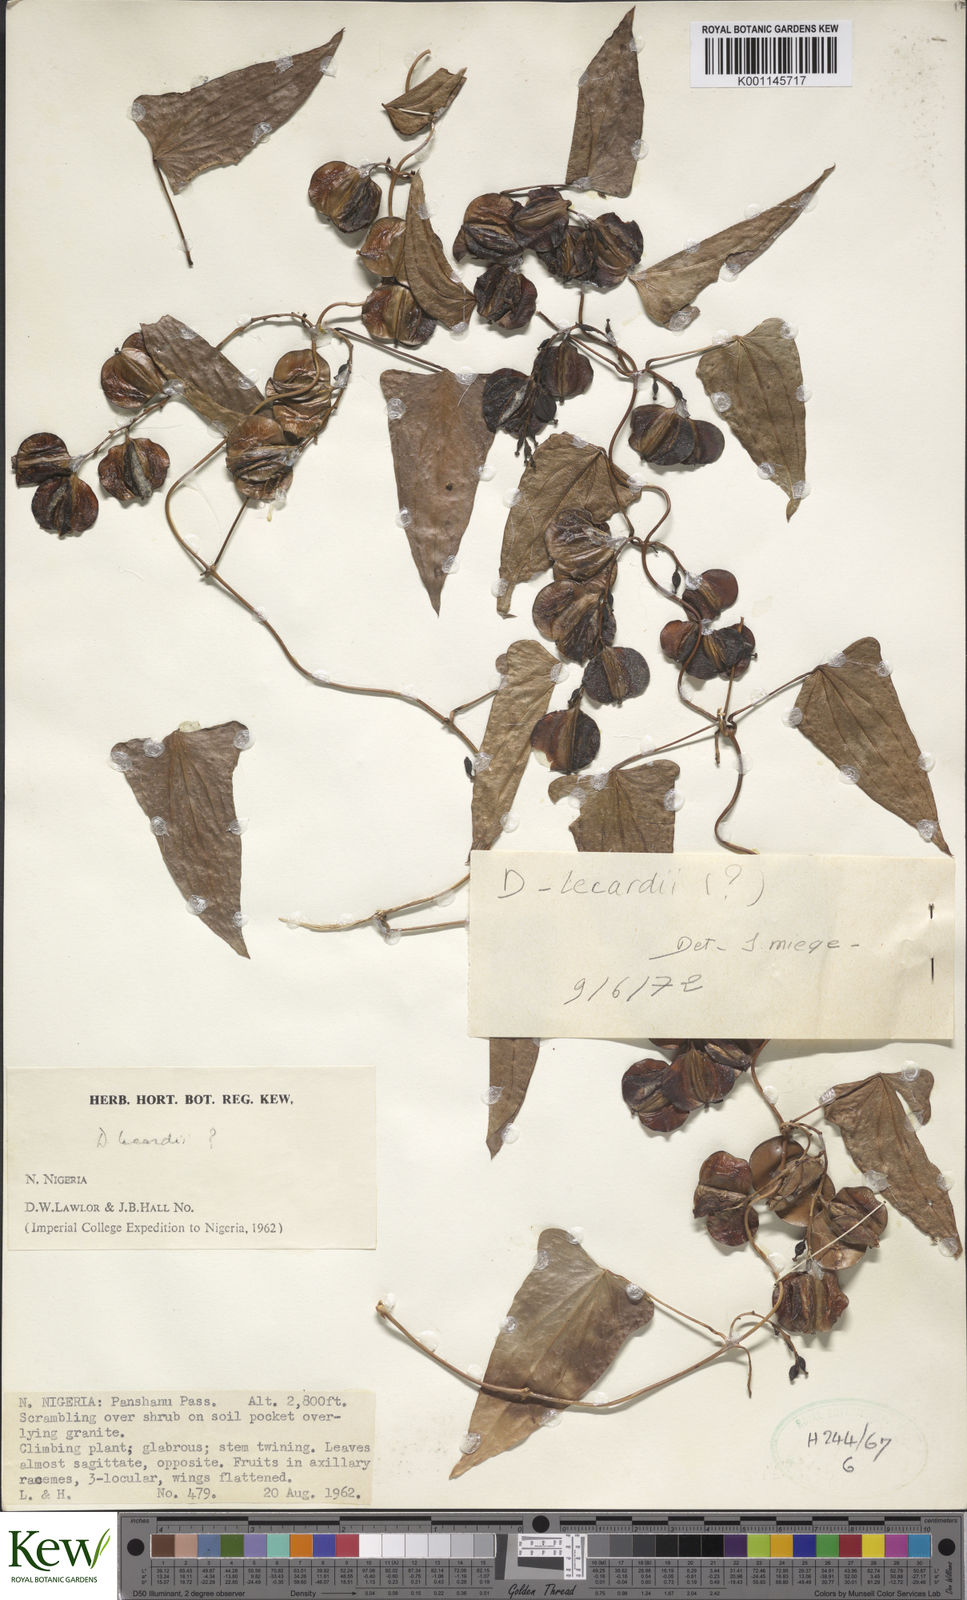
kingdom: Plantae
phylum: Tracheophyta
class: Liliopsida
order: Dioscoreales
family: Dioscoreaceae
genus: Dioscorea
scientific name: Dioscorea sagittifolia
